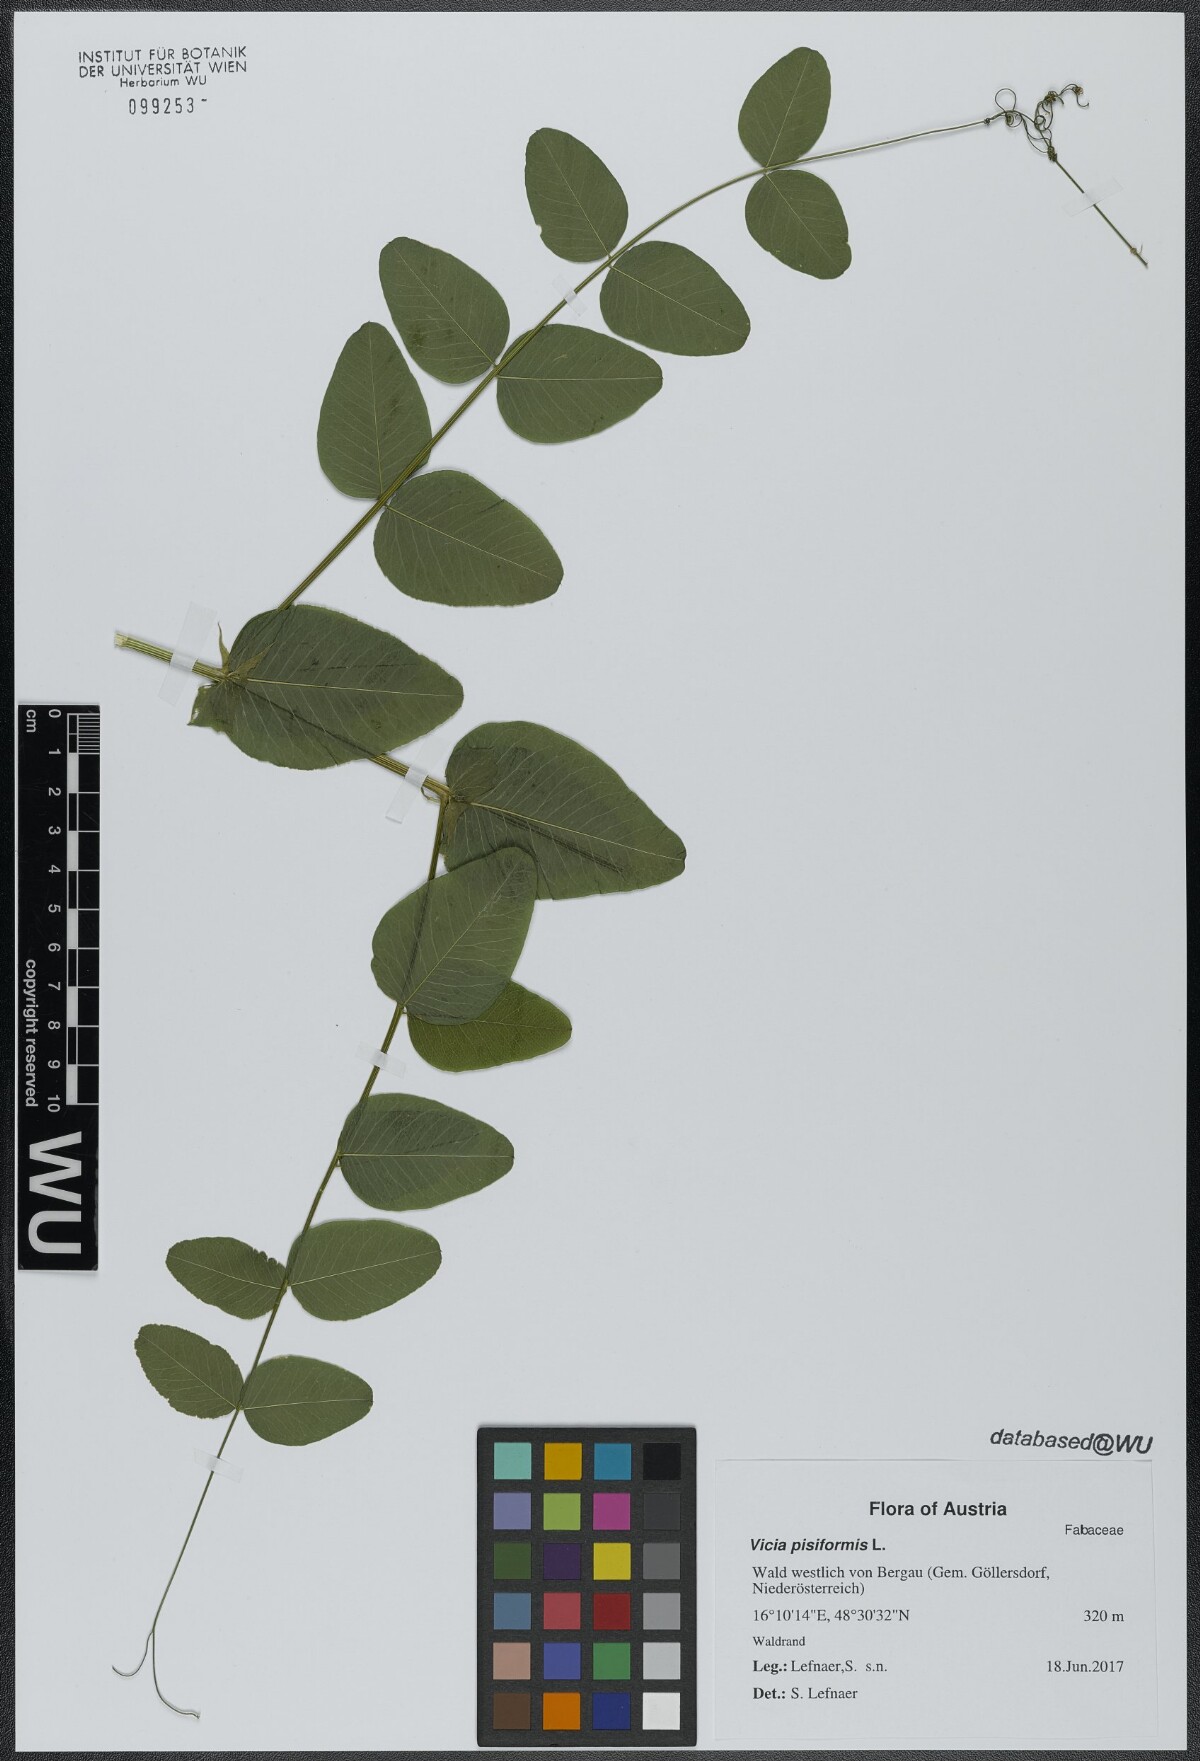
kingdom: Plantae
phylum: Tracheophyta
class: Magnoliopsida
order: Fabales
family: Fabaceae
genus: Vicia
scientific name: Vicia pisiformis
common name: Pale-flower vetch
